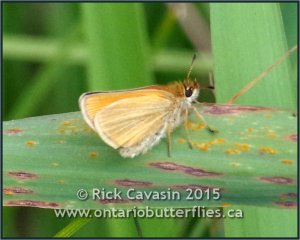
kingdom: Animalia
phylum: Arthropoda
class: Insecta
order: Lepidoptera
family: Hesperiidae
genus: Thymelicus
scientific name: Thymelicus lineola
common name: European Skipper
